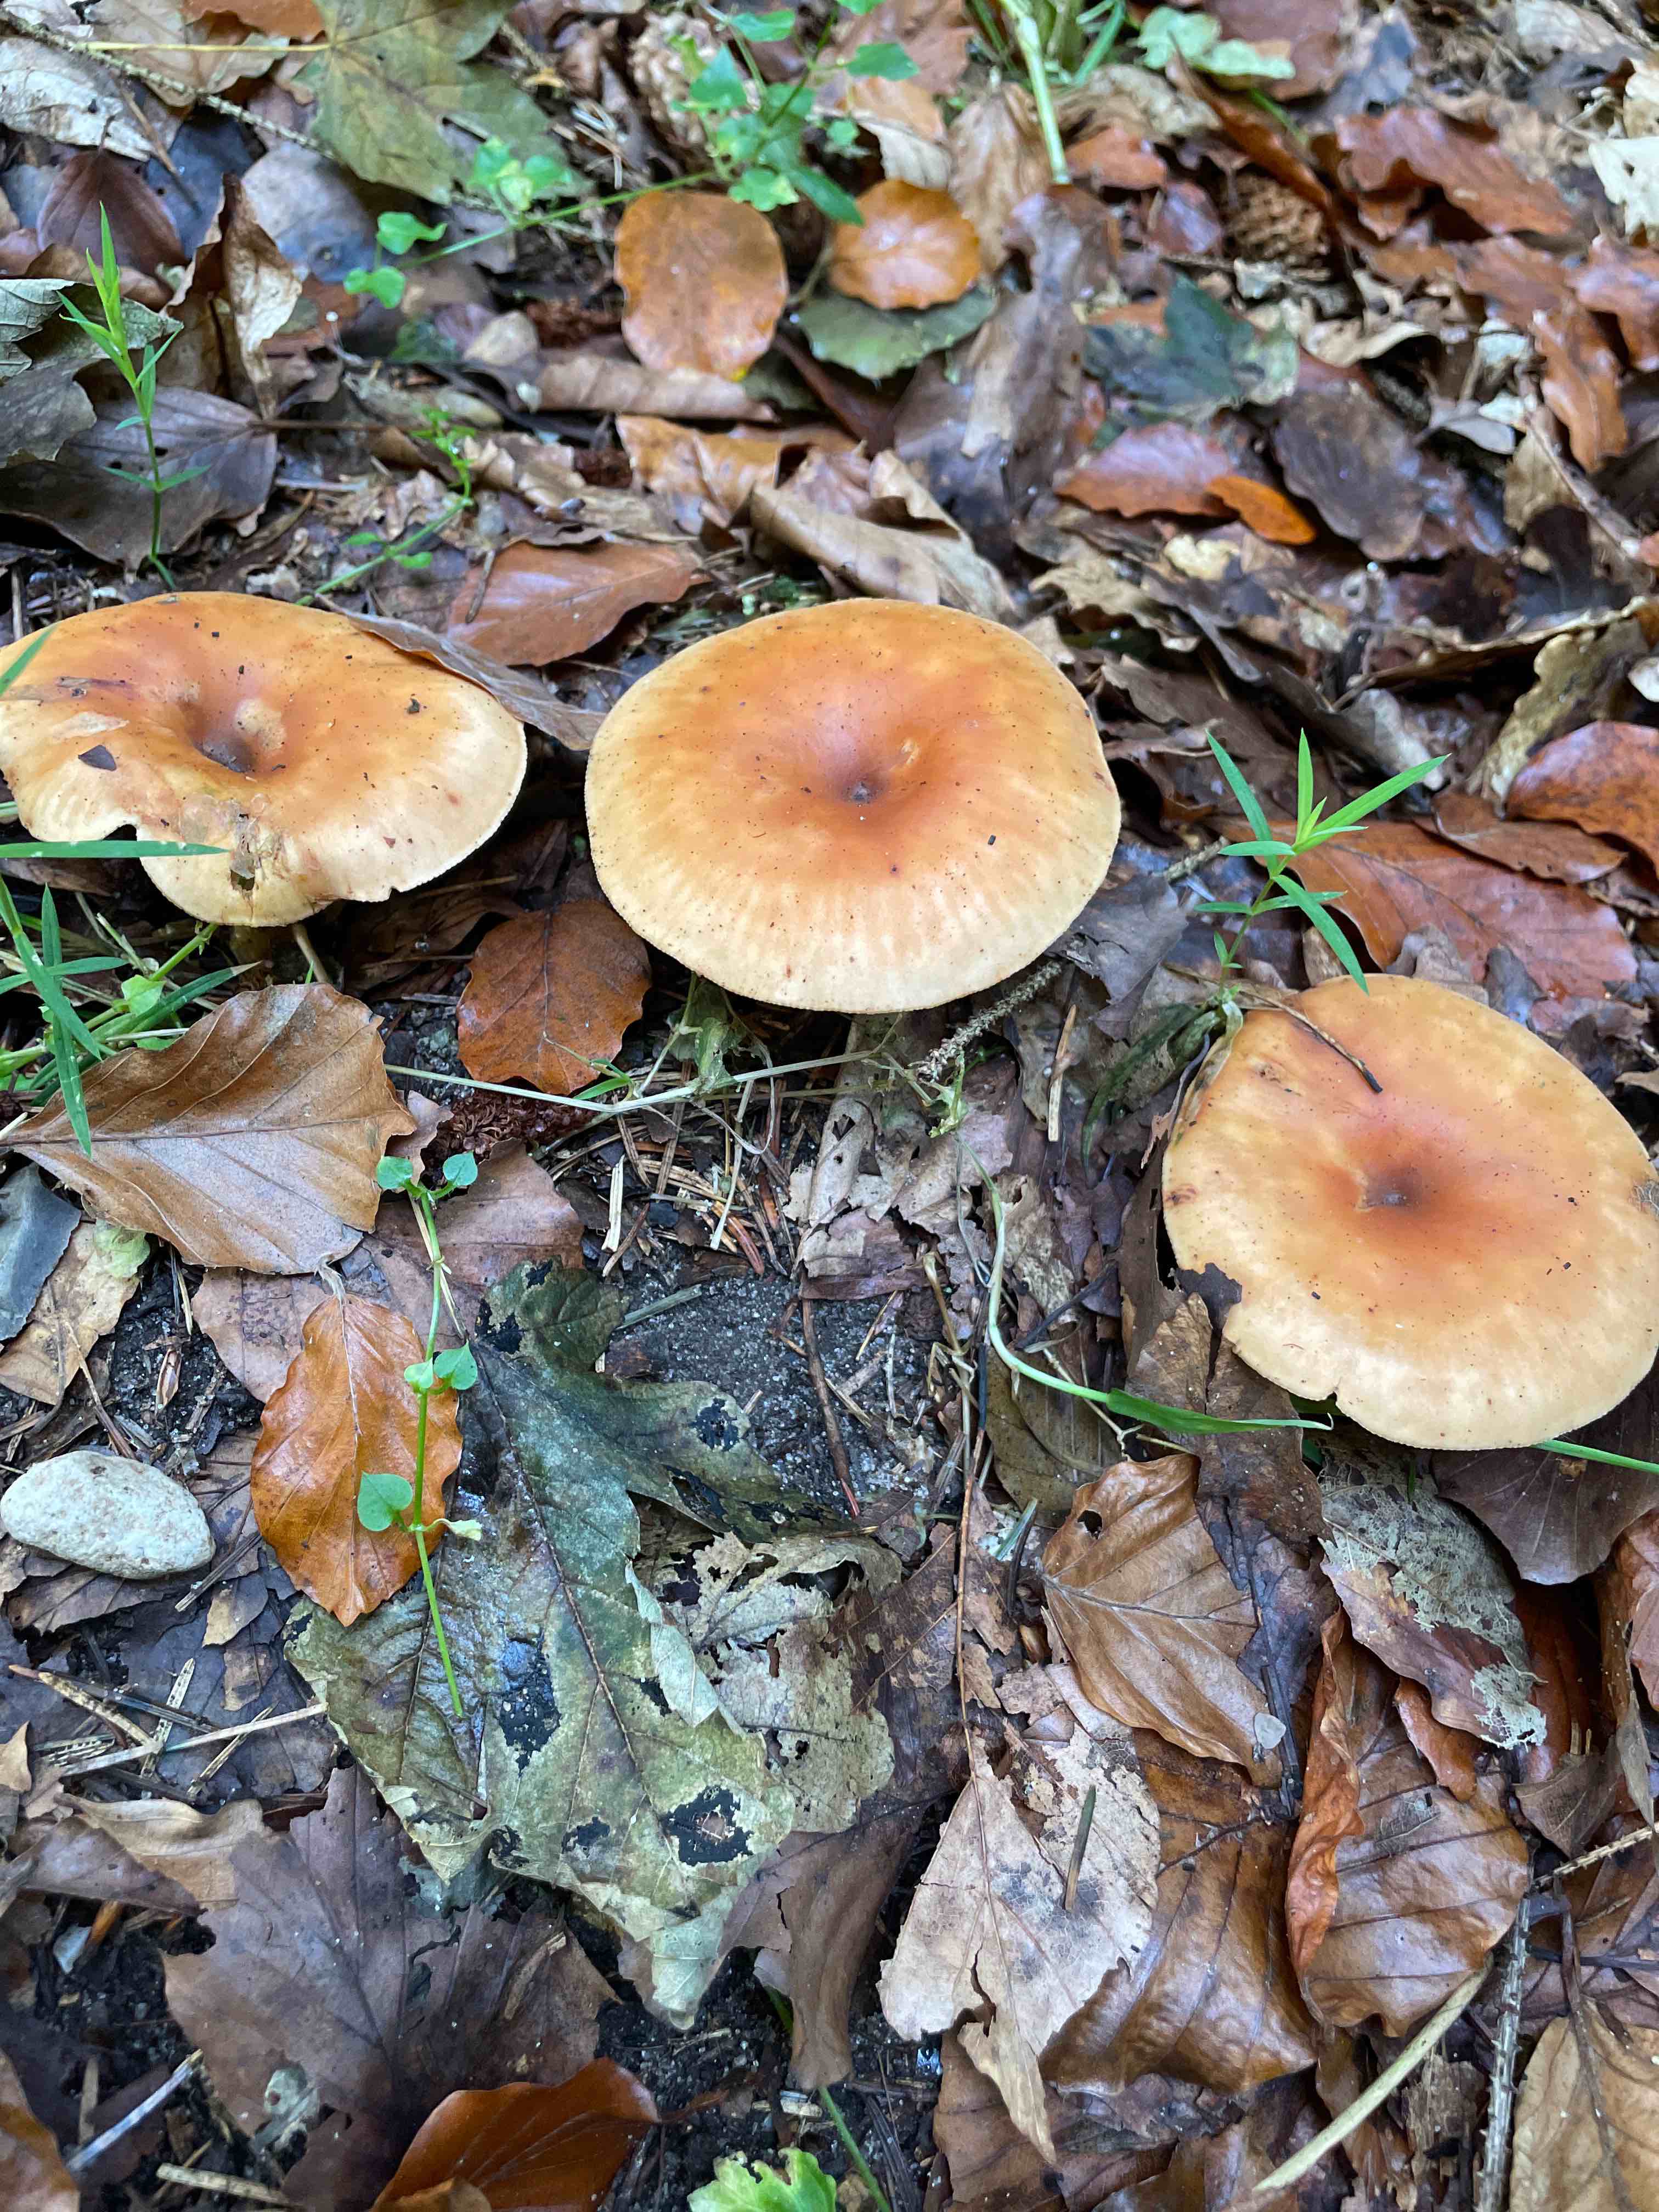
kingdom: Fungi
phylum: Basidiomycota
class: Agaricomycetes
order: Agaricales
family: Tricholomataceae
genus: Paralepista
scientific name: Paralepista flaccida
